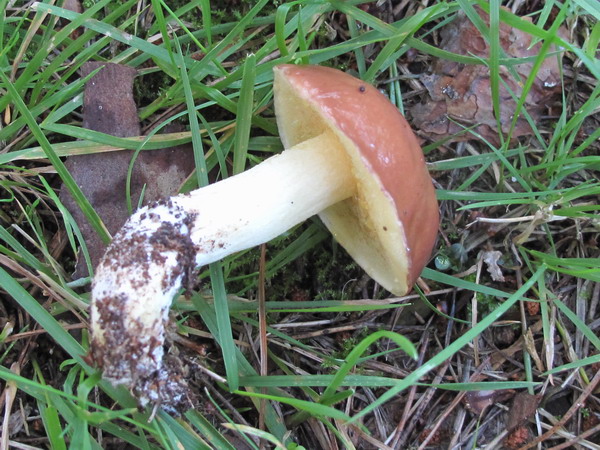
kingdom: Fungi
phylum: Basidiomycota
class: Agaricomycetes
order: Boletales
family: Suillaceae
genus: Suillus
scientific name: Suillus granulatus
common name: kornet slimrørhat
